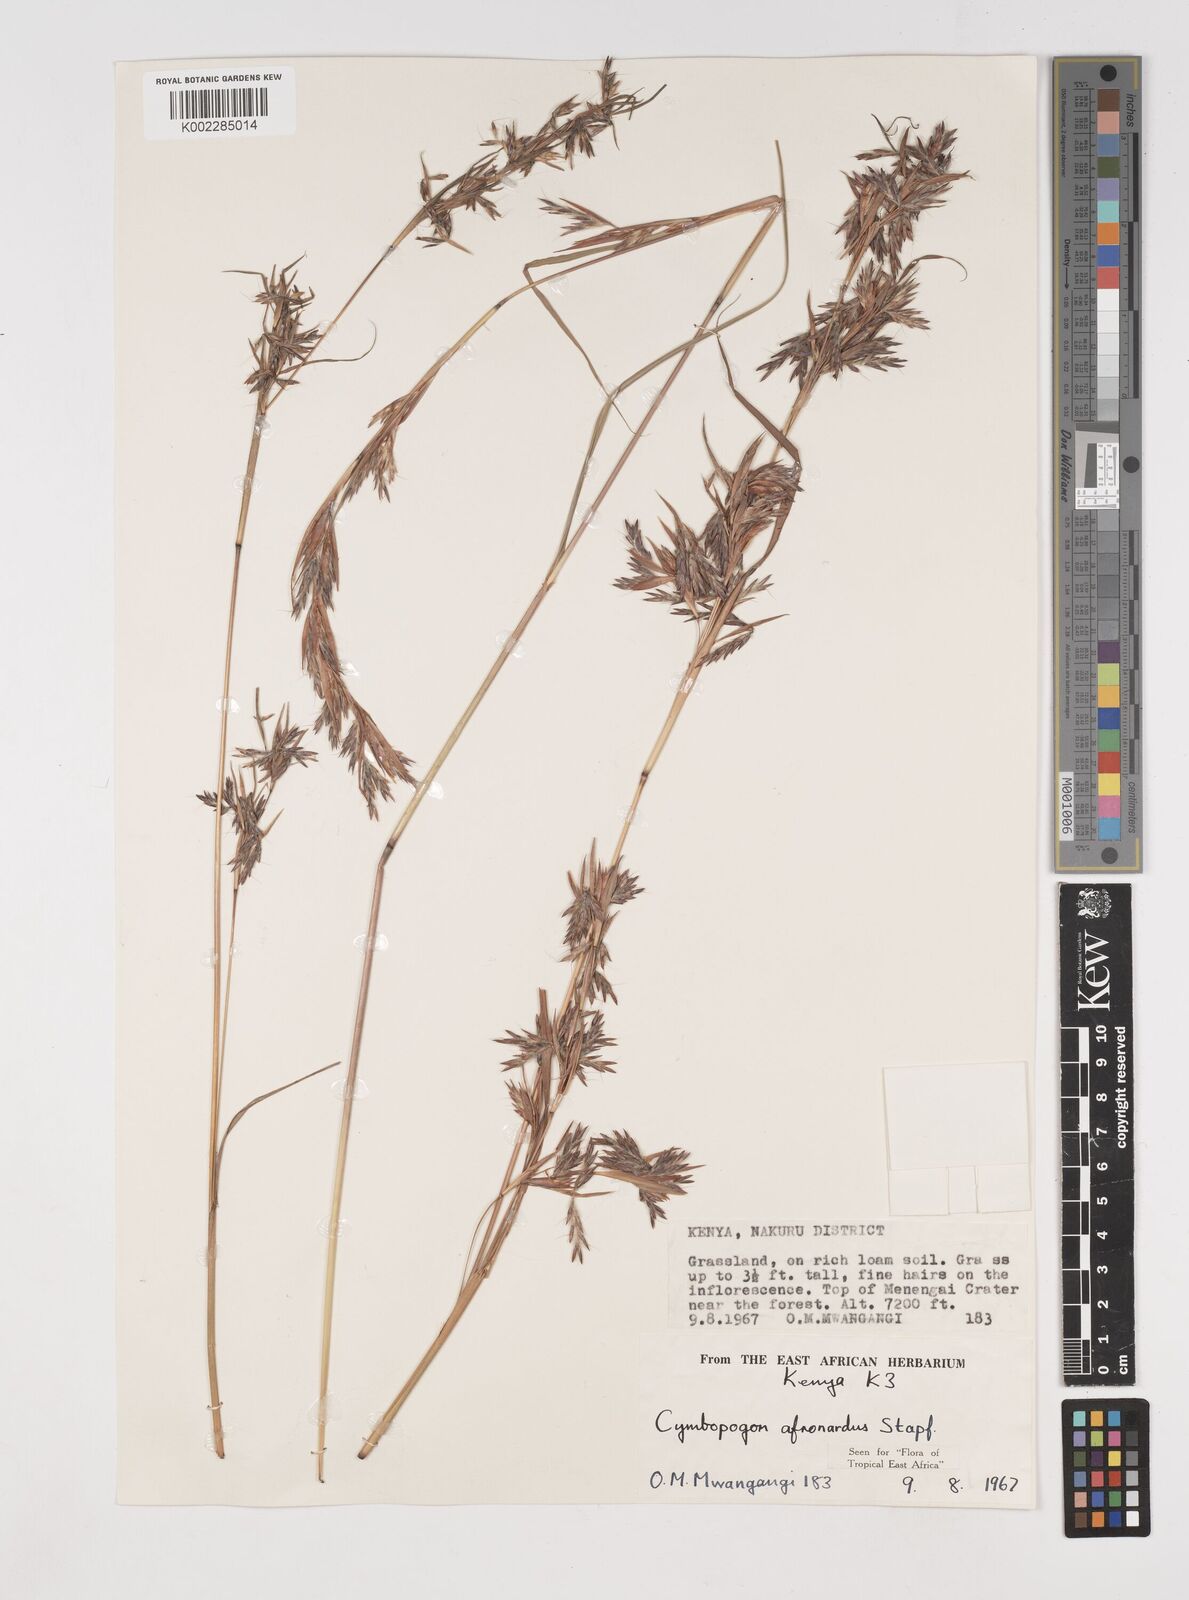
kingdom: Plantae
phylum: Tracheophyta
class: Liliopsida
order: Poales
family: Poaceae
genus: Cymbopogon
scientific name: Cymbopogon nardus
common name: Giant turpentine grass
